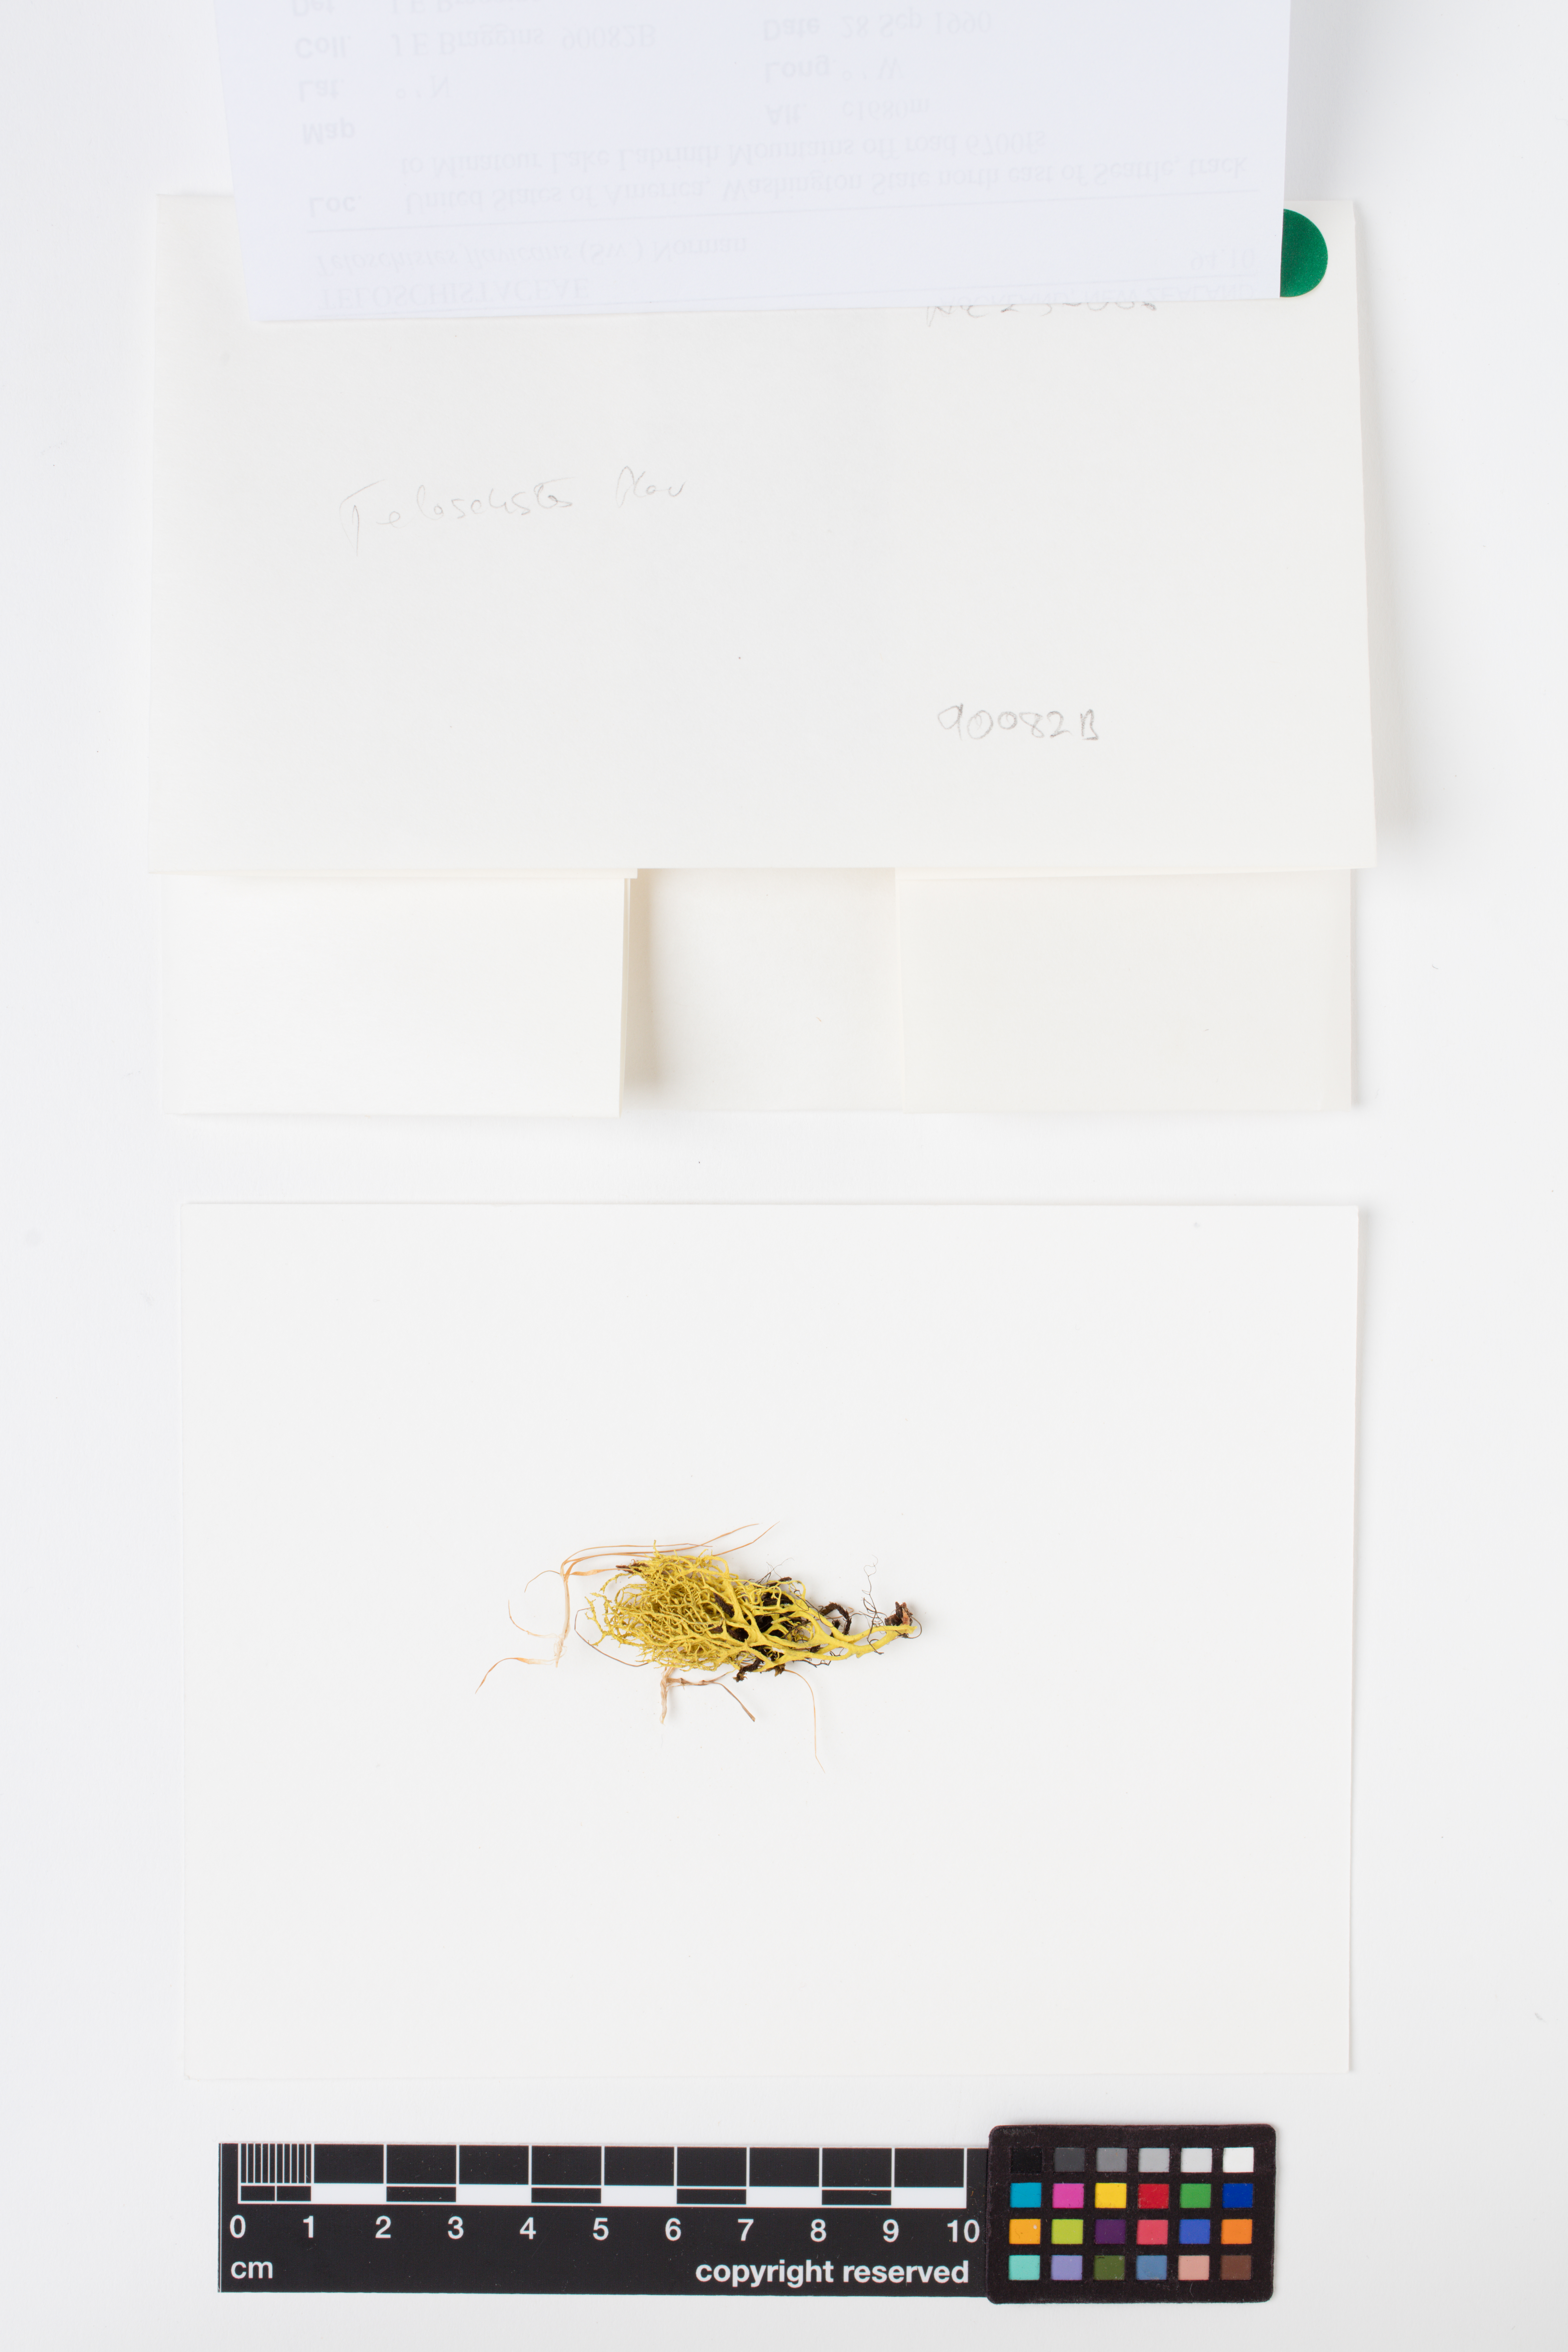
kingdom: Fungi
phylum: Ascomycota
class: Lecanoromycetes
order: Teloschistales
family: Teloschistaceae
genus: Teloschistes
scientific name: Teloschistes flavicans
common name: Golden hair-lichen
